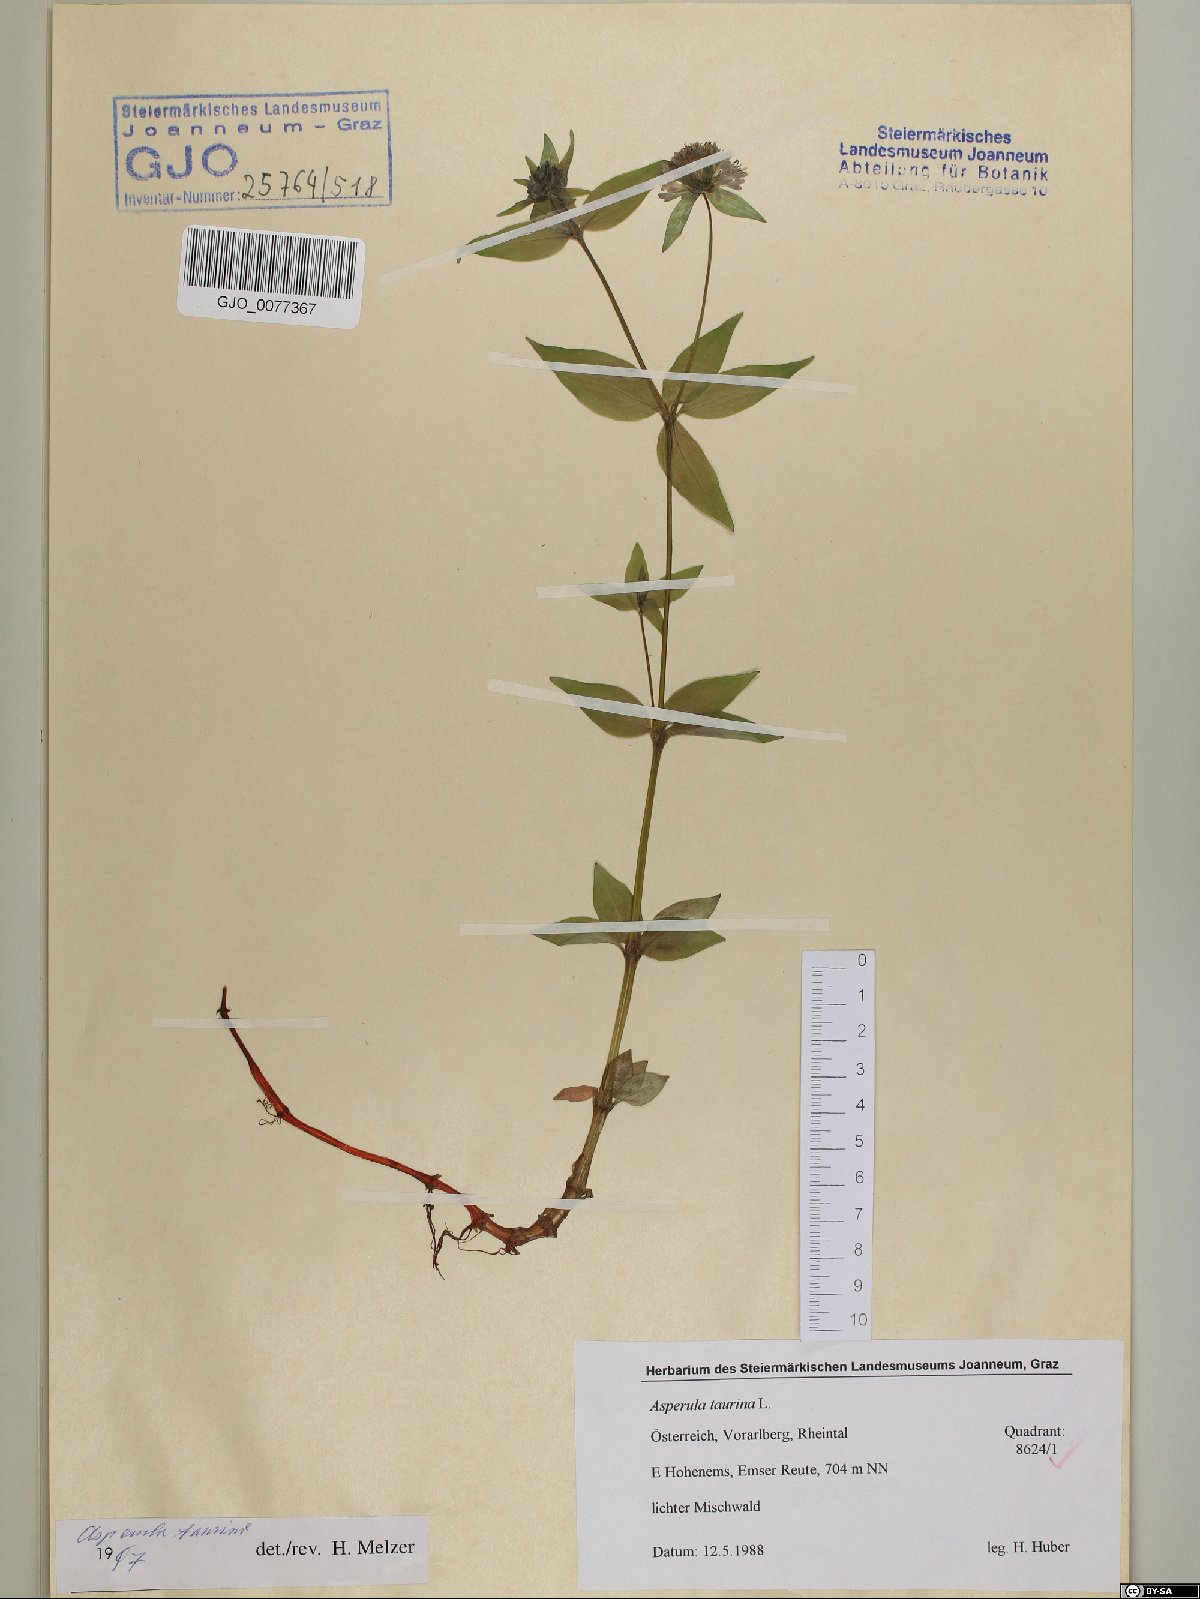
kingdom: Plantae
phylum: Tracheophyta
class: Magnoliopsida
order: Gentianales
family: Rubiaceae
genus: Asperula
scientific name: Asperula taurina
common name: Pink woodruff
